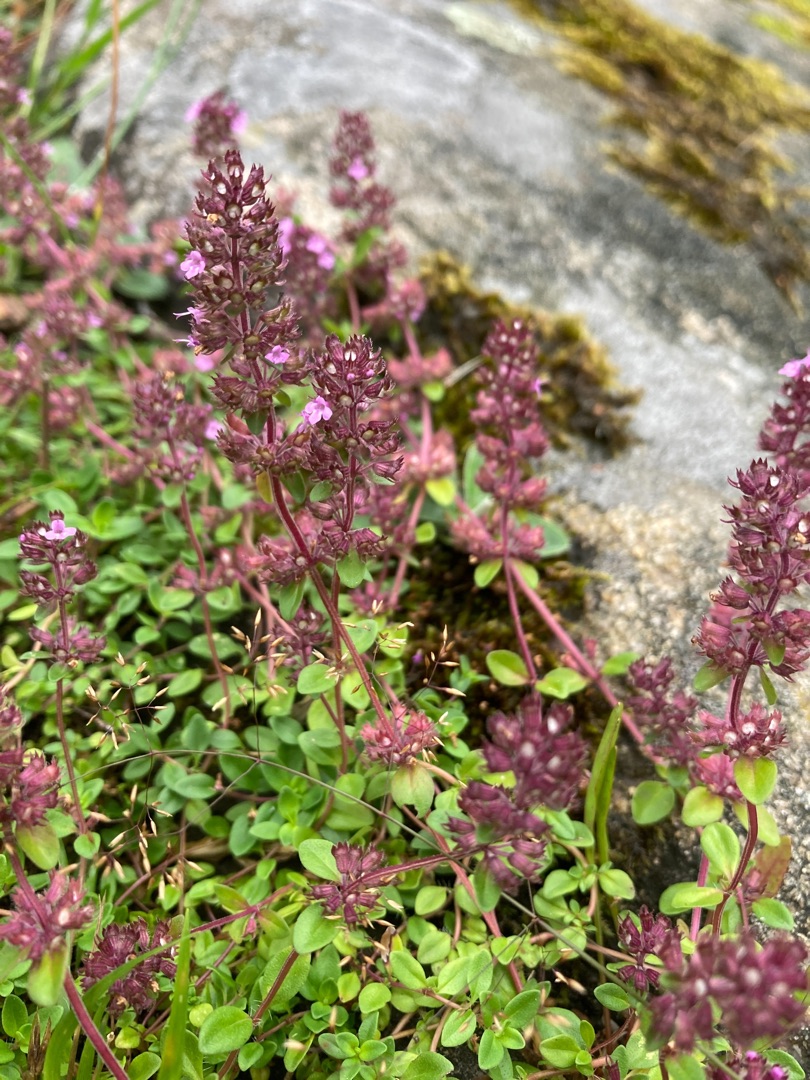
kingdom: Plantae
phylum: Tracheophyta
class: Magnoliopsida
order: Lamiales
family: Lamiaceae
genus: Thymus
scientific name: Thymus pulegioides
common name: Bredbladet timian
